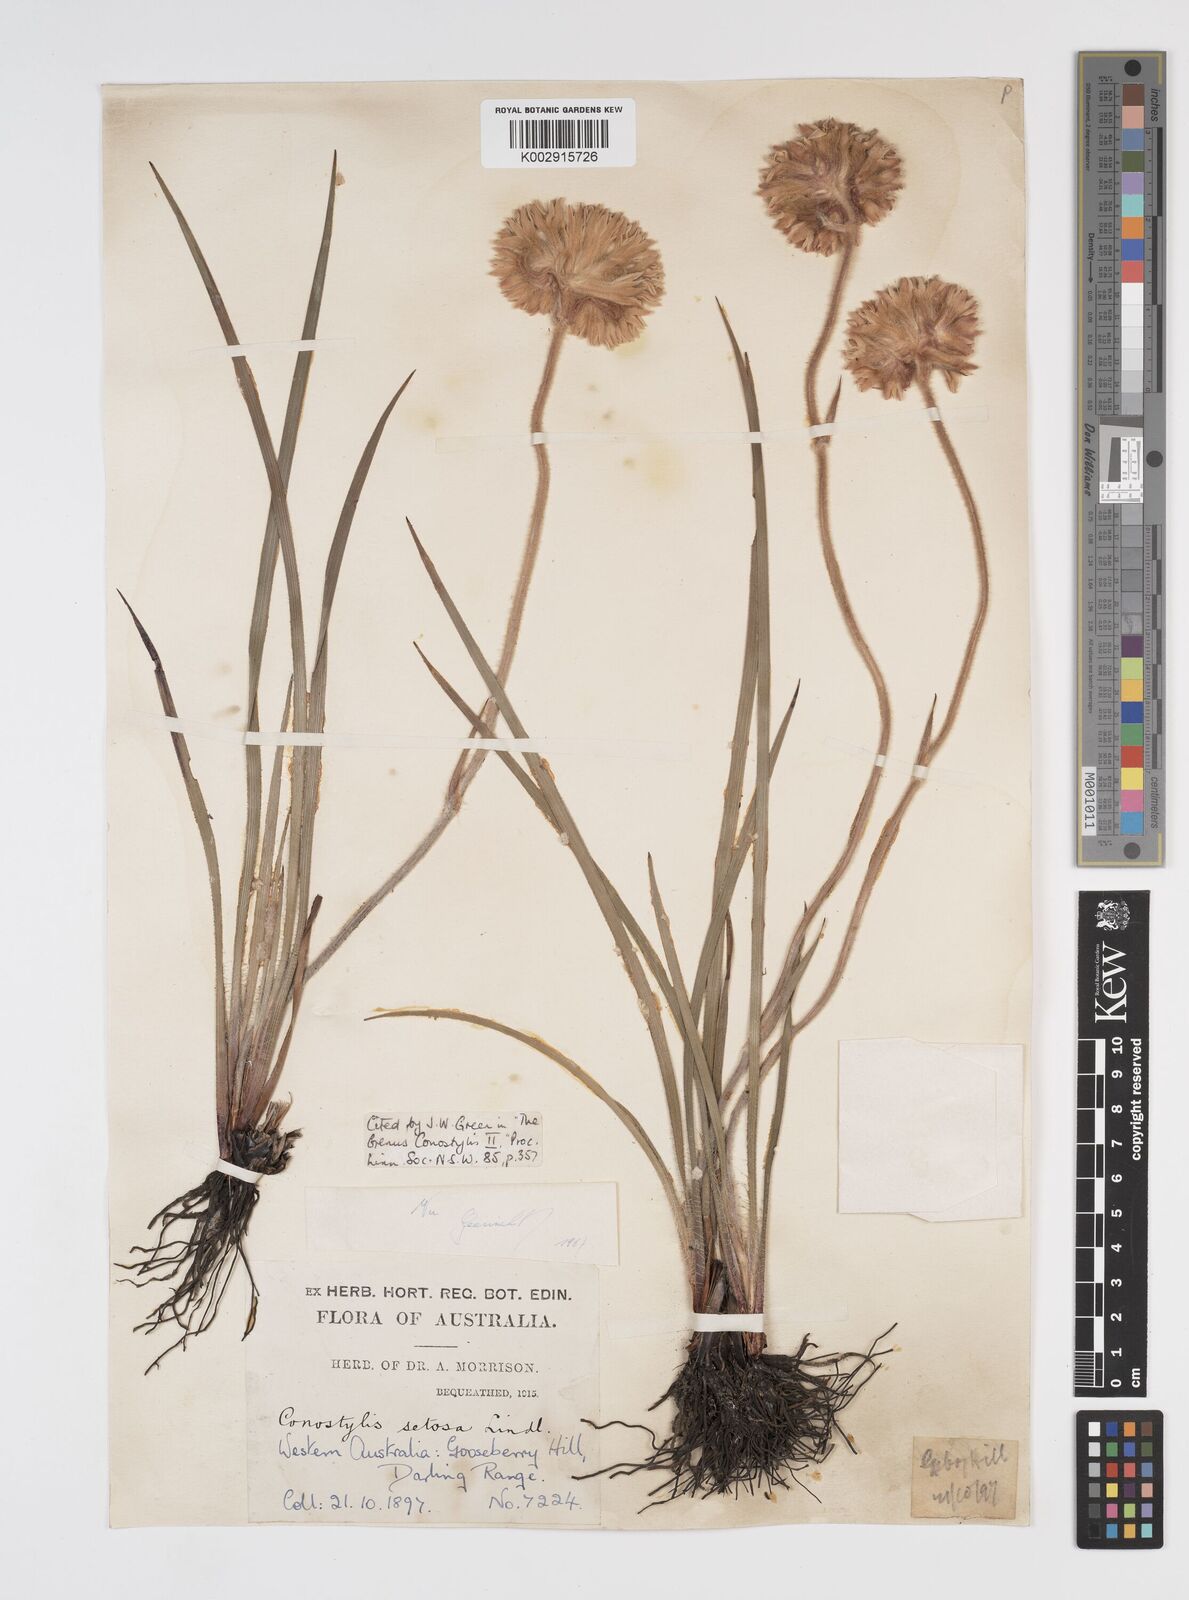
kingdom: Plantae
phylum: Tracheophyta
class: Liliopsida
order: Commelinales
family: Haemodoraceae
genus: Conostylis
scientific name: Conostylis setosa
